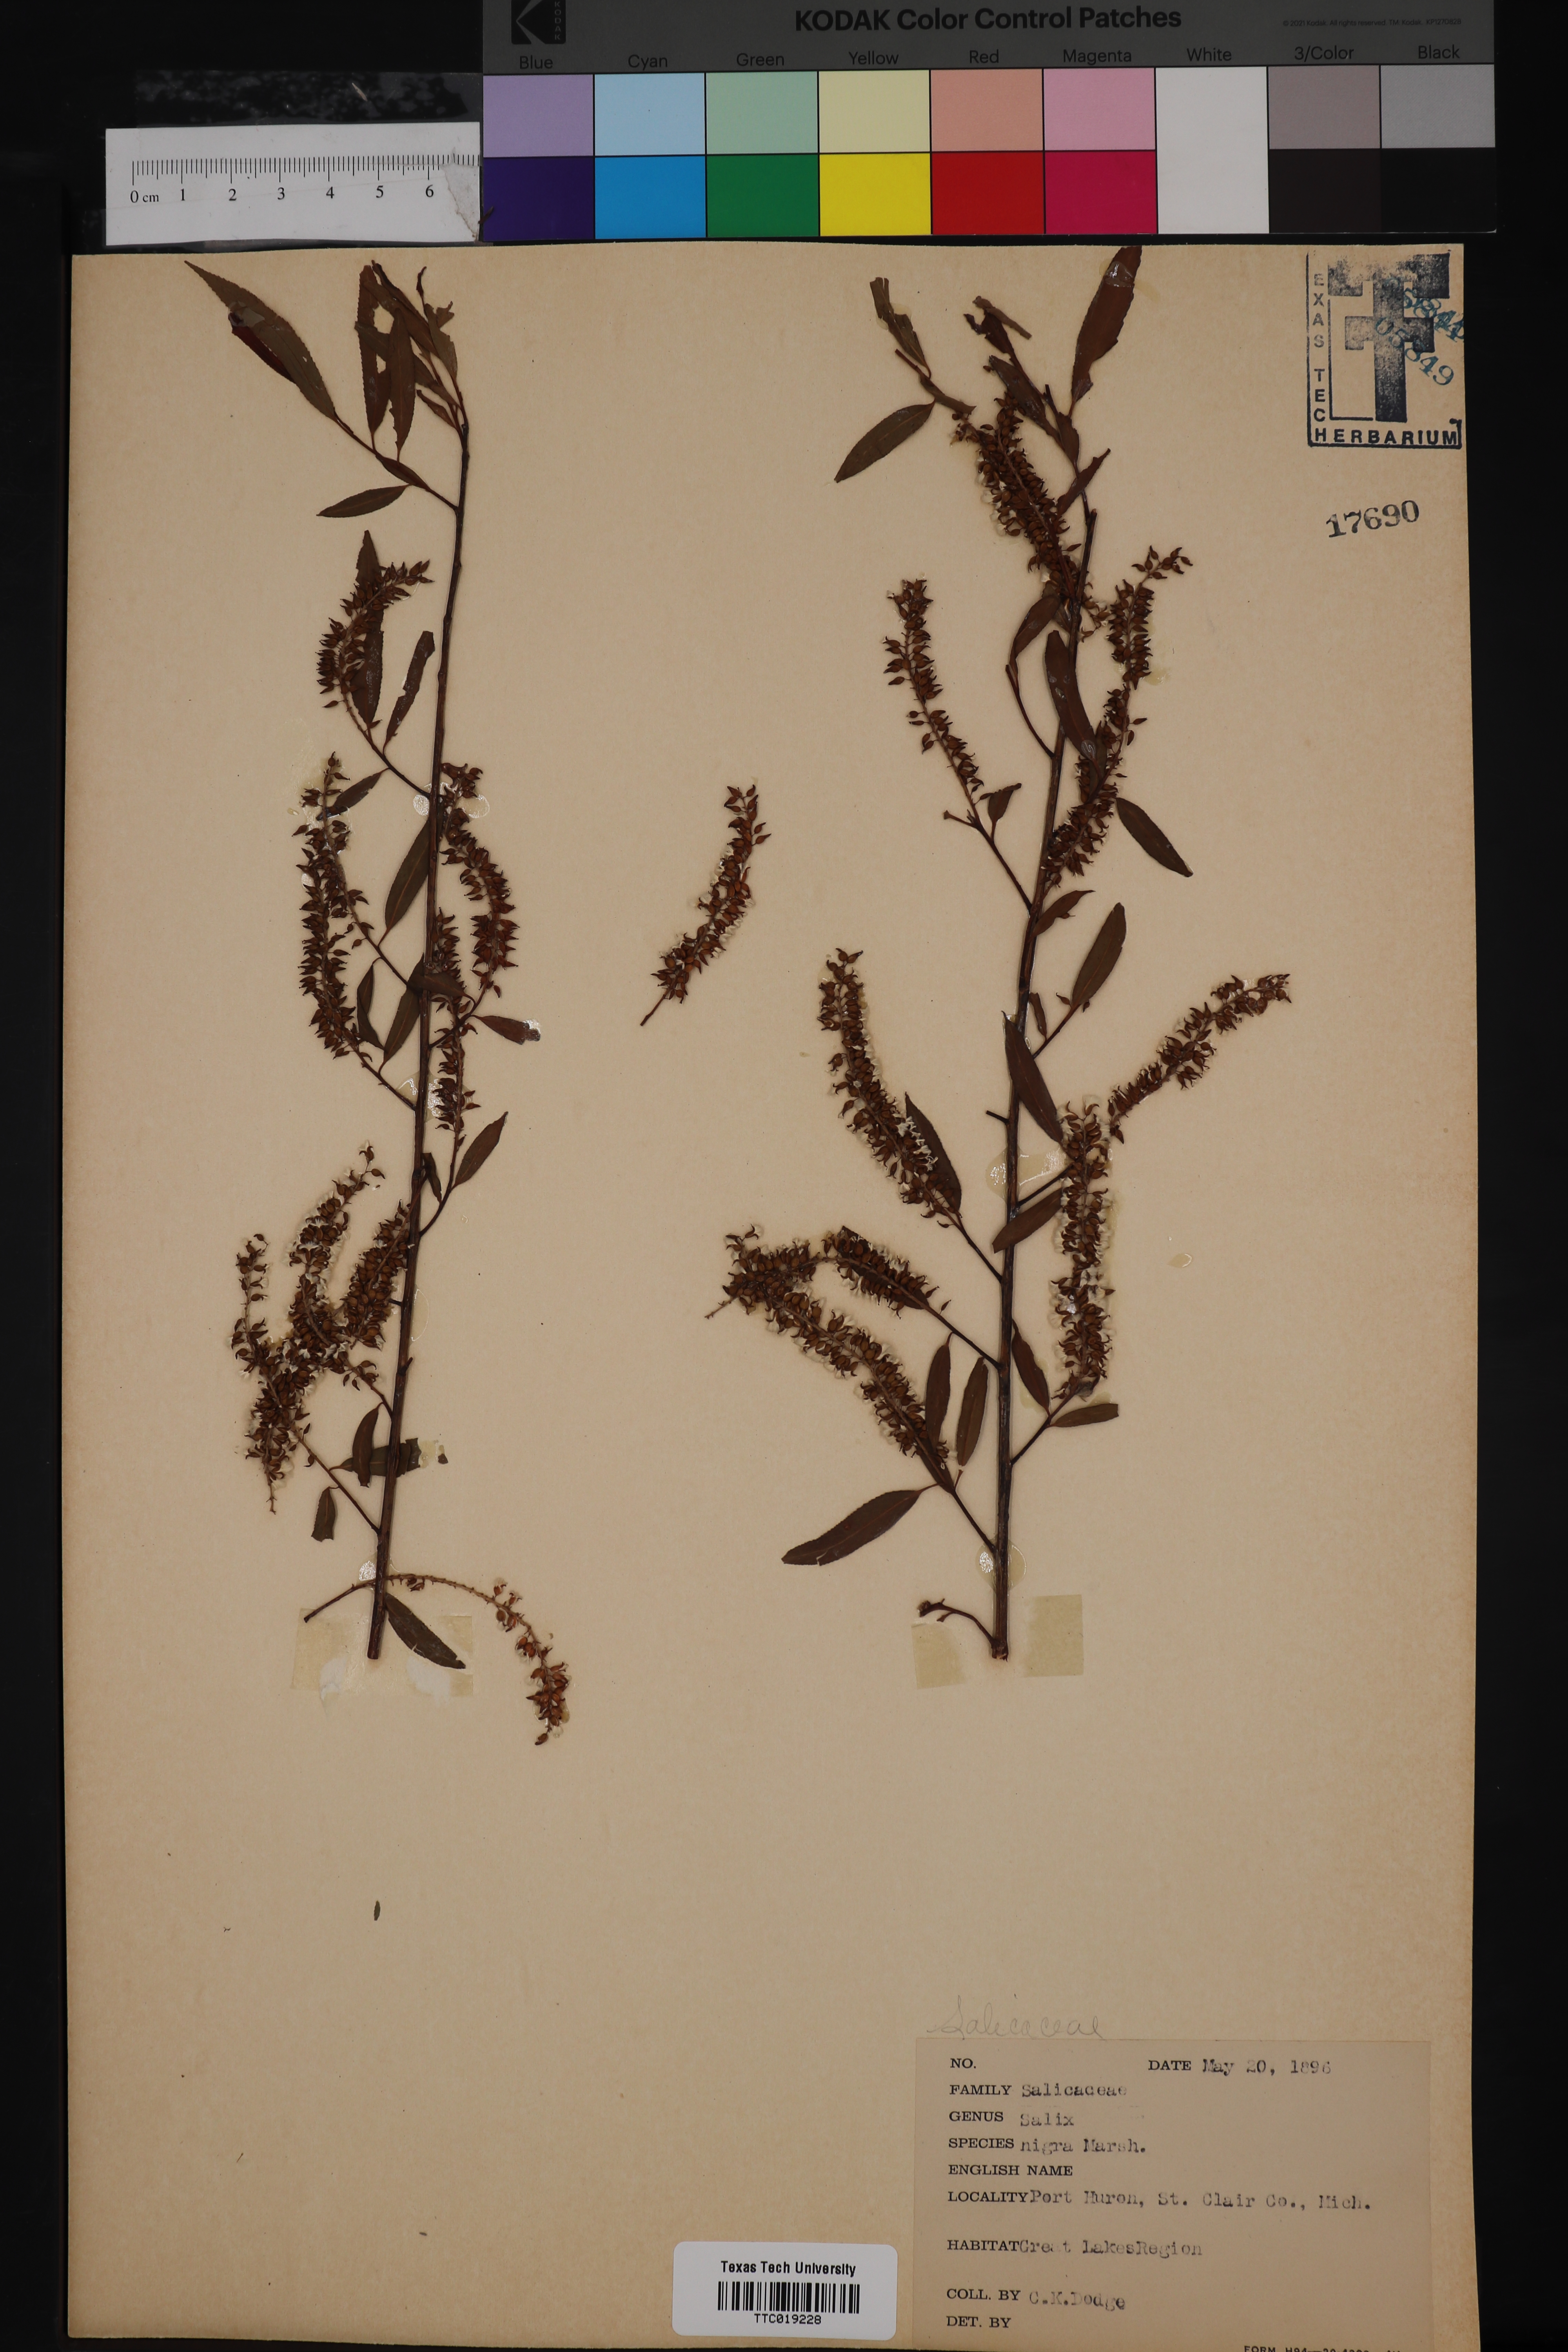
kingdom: Plantae
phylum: Tracheophyta
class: Magnoliopsida
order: Malpighiales
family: Salicaceae
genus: Salix
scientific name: Salix nigra
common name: Black willow
